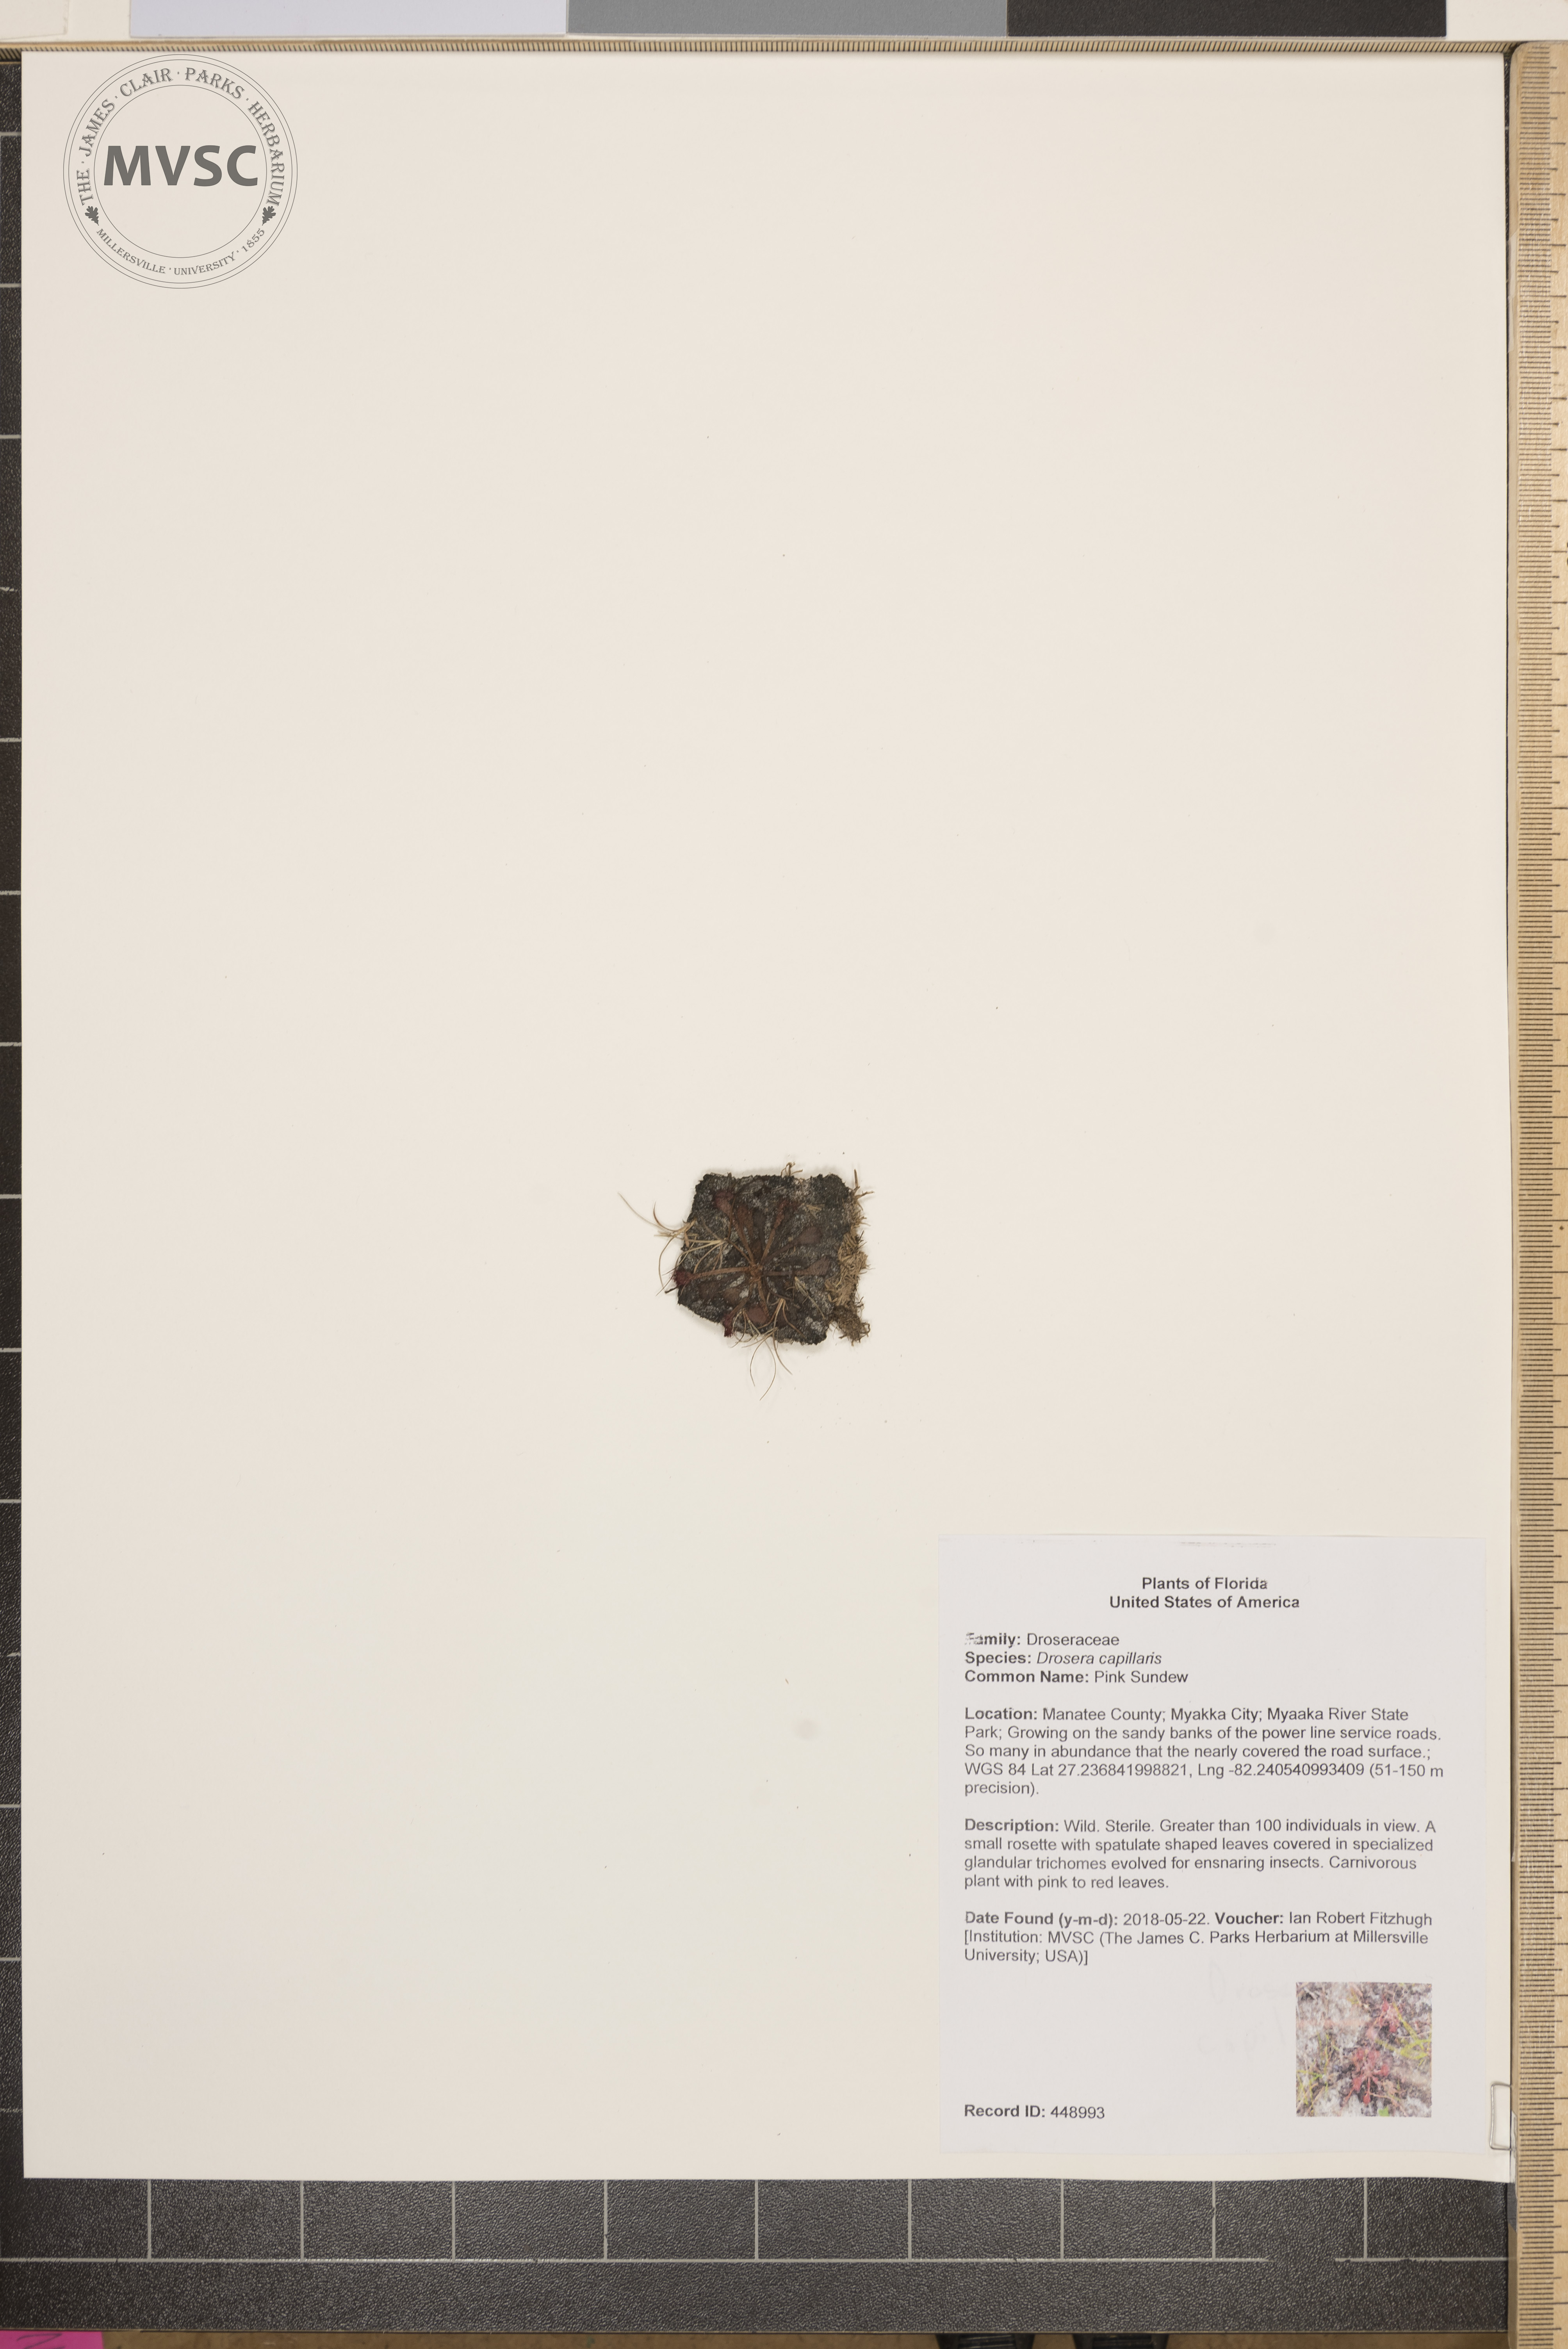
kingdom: Plantae
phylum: Tracheophyta
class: Magnoliopsida
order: Caryophyllales
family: Droseraceae
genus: Drosera
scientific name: Drosera capillaris
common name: Pink Sundew
